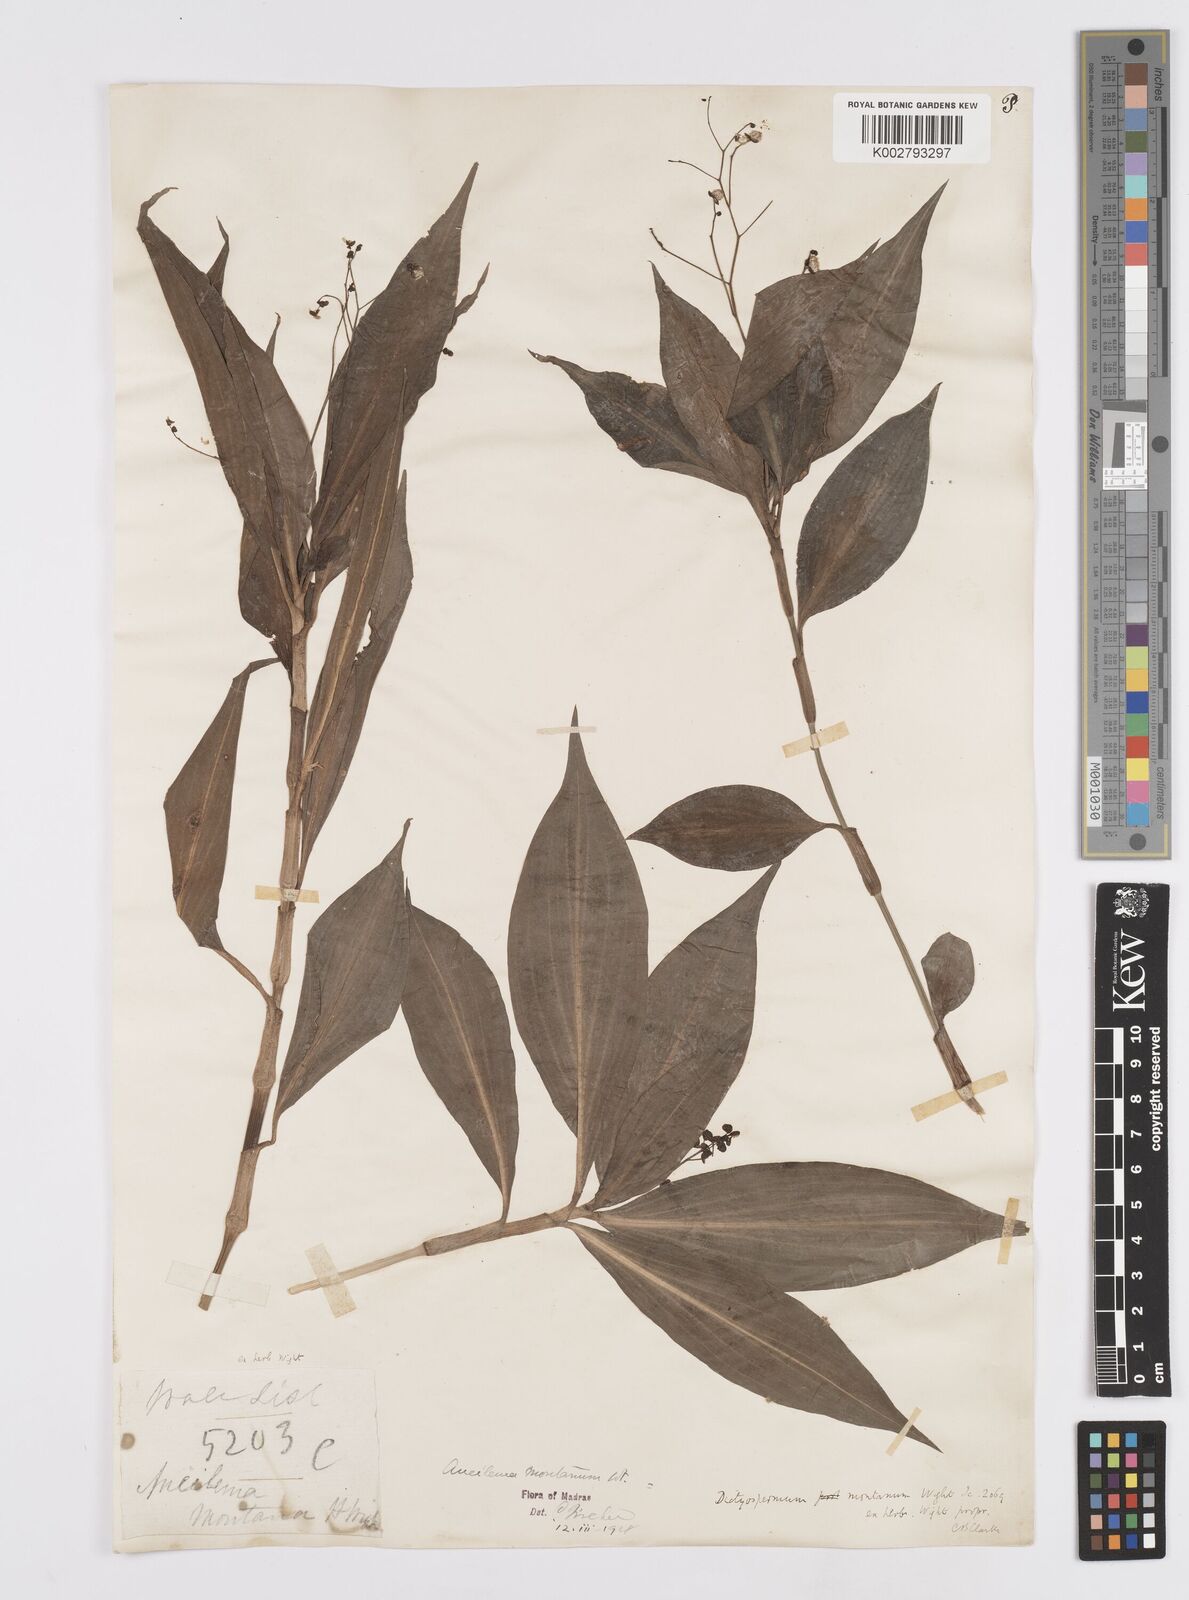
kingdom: Plantae
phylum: Tracheophyta
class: Liliopsida
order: Commelinales
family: Commelinaceae
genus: Murdannia
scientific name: Murdannia
